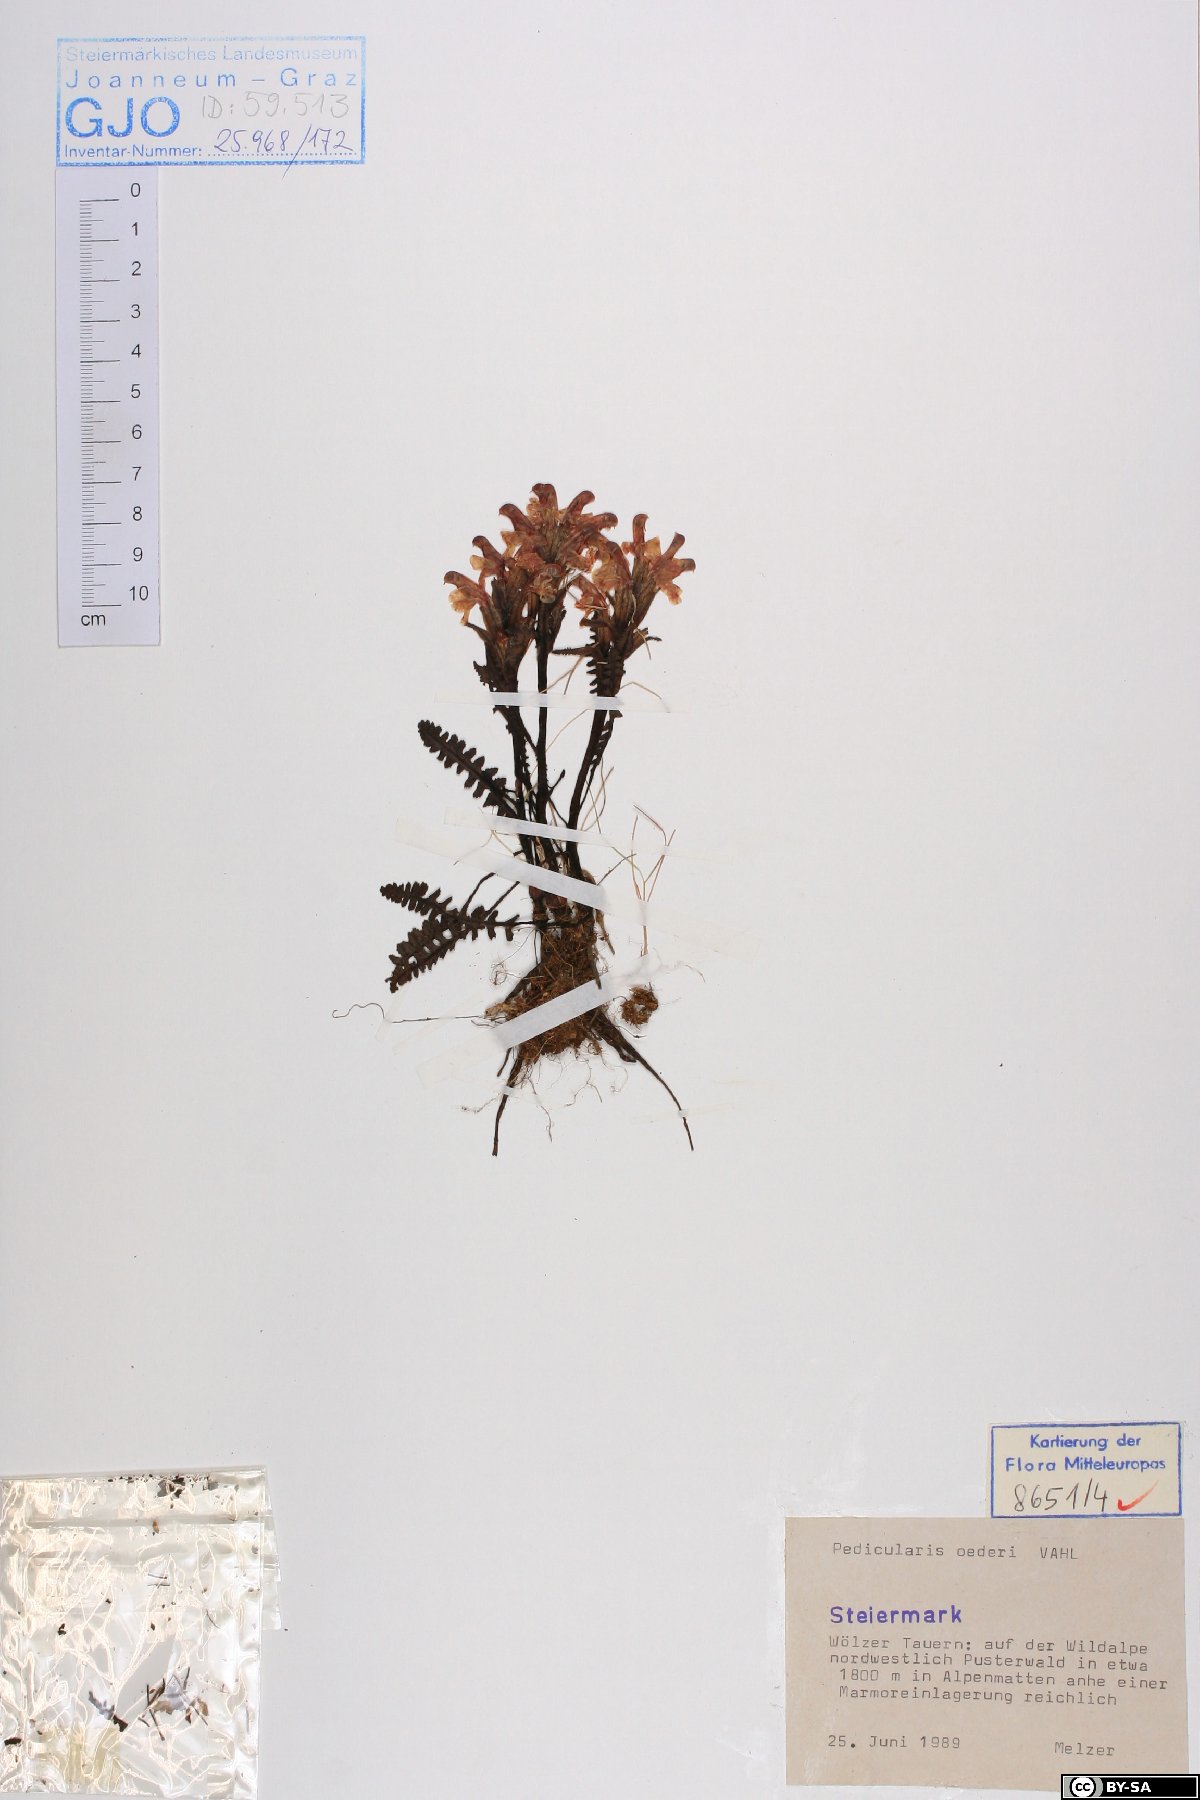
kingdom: Plantae
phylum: Tracheophyta
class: Magnoliopsida
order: Lamiales
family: Orobanchaceae
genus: Pedicularis
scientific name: Pedicularis oederi
